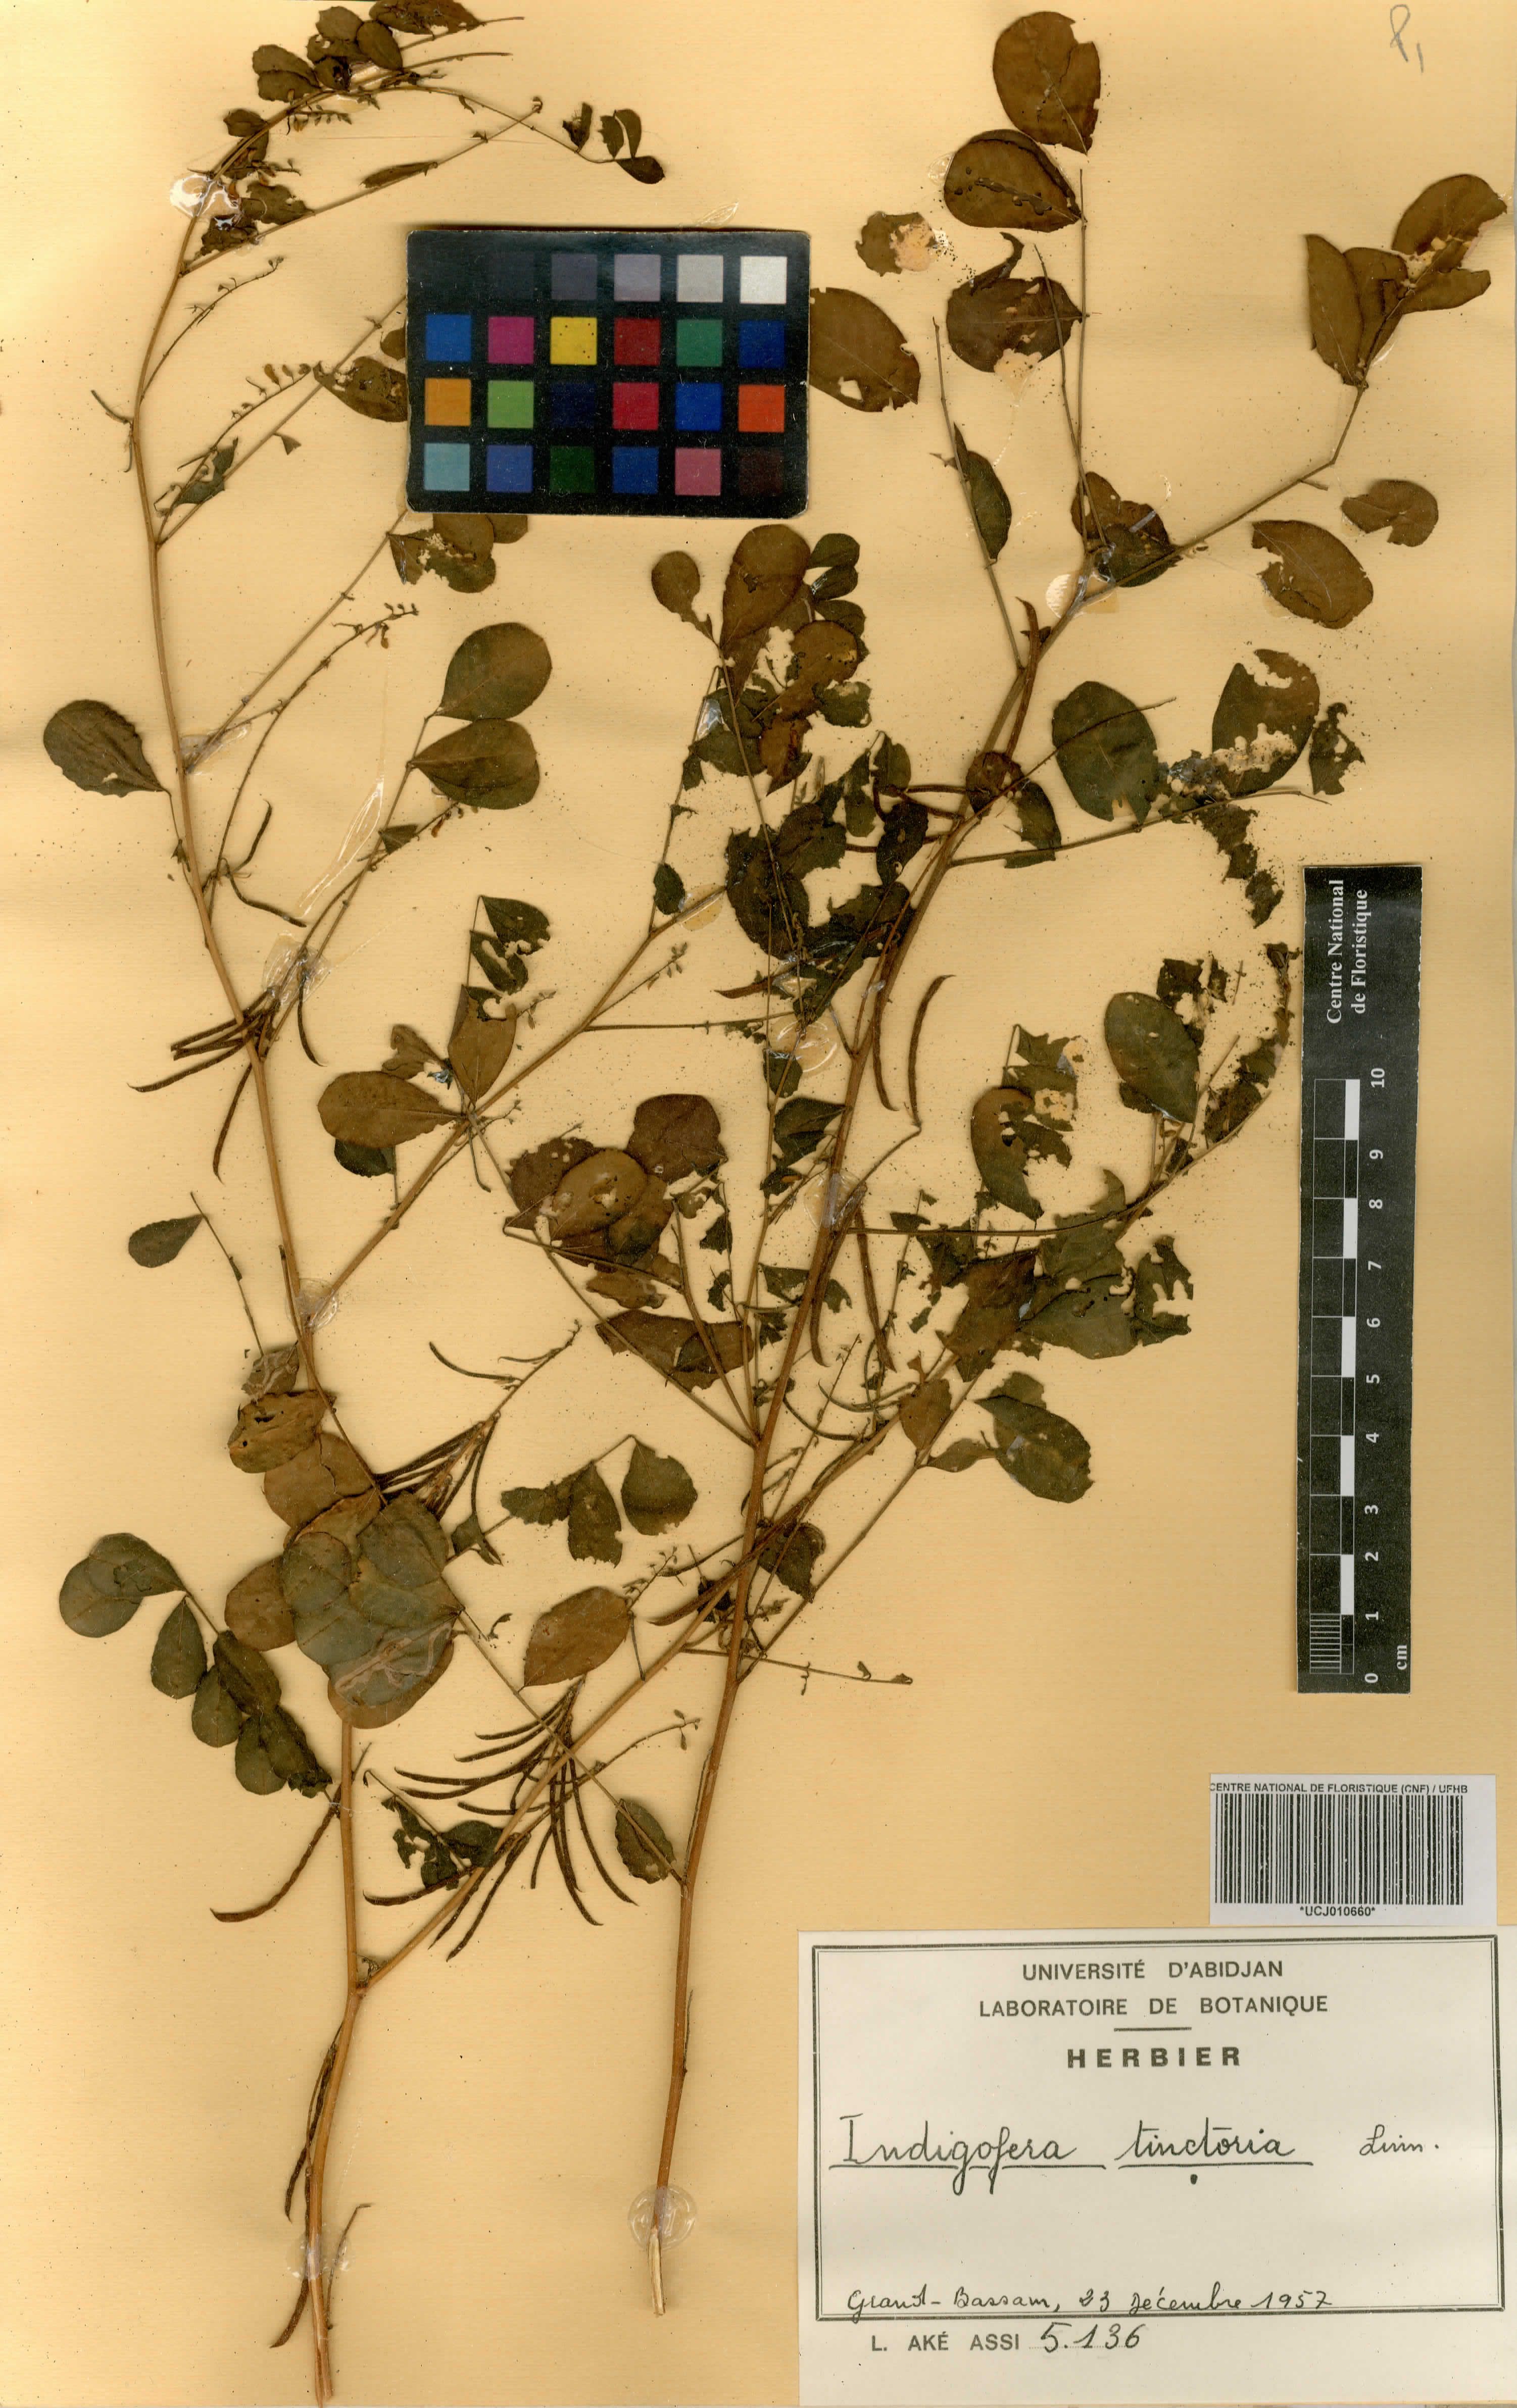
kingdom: Plantae
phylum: Tracheophyta
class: Magnoliopsida
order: Fabales
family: Fabaceae
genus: Indigofera
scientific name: Indigofera tinctoria
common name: True indigo
